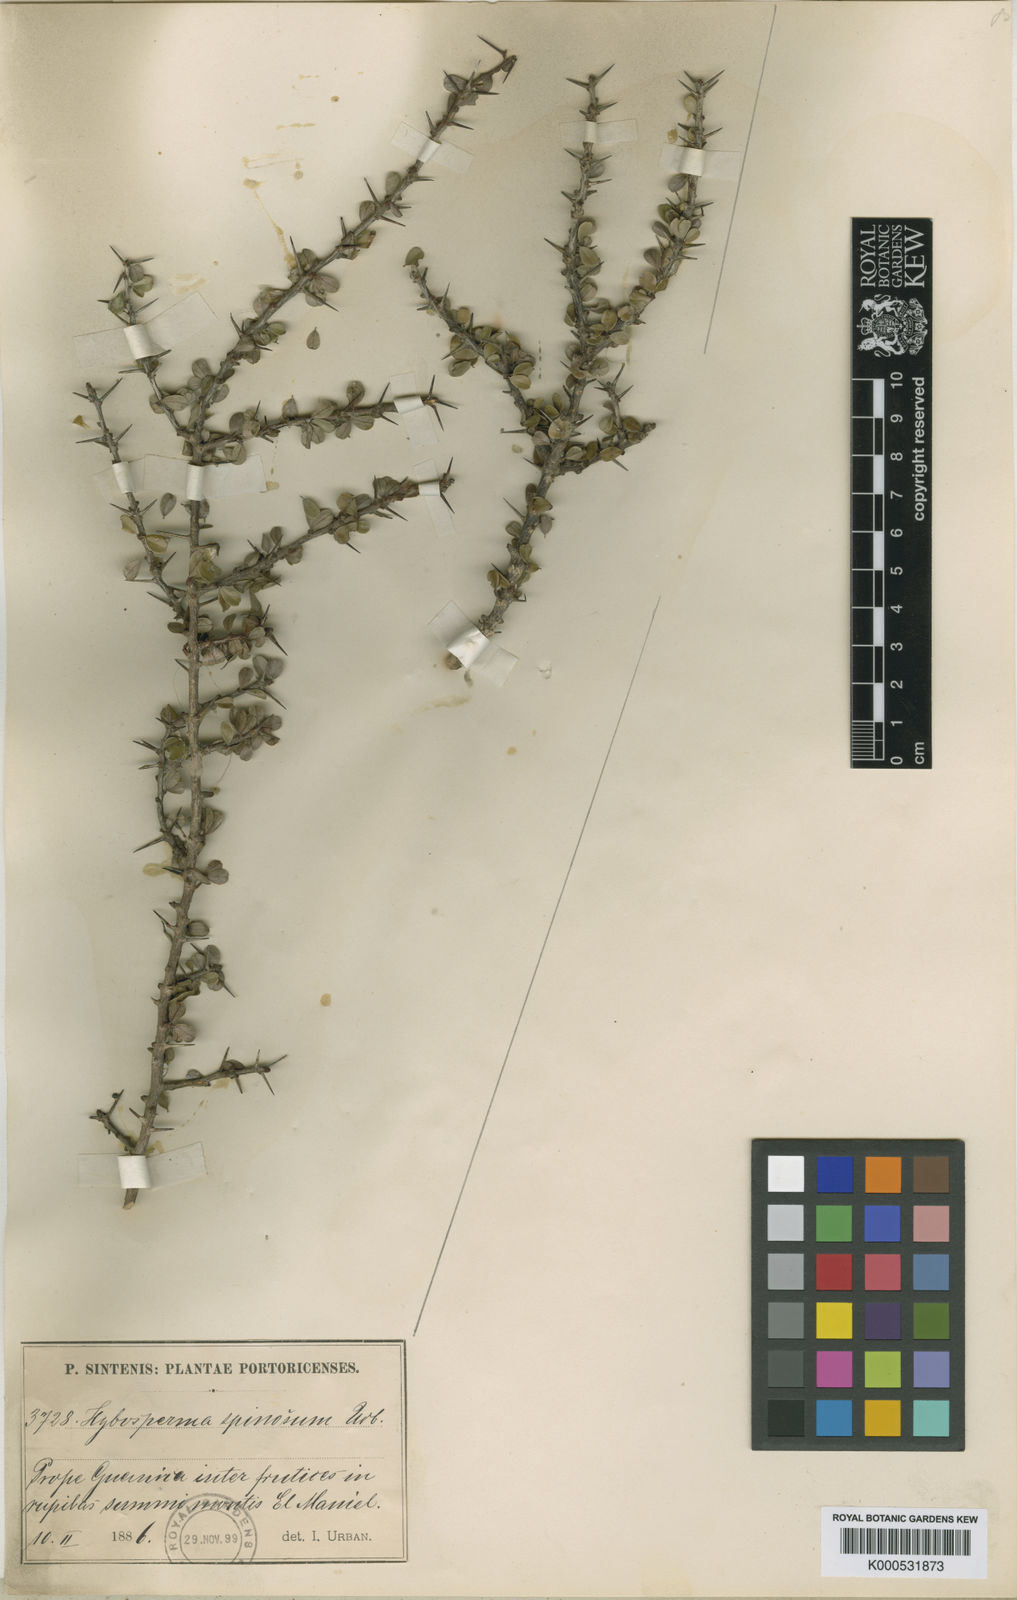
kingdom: Plantae
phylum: Tracheophyta
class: Magnoliopsida
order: Rosales
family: Rhamnaceae
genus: Colubrina
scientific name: Colubrina spinosa
